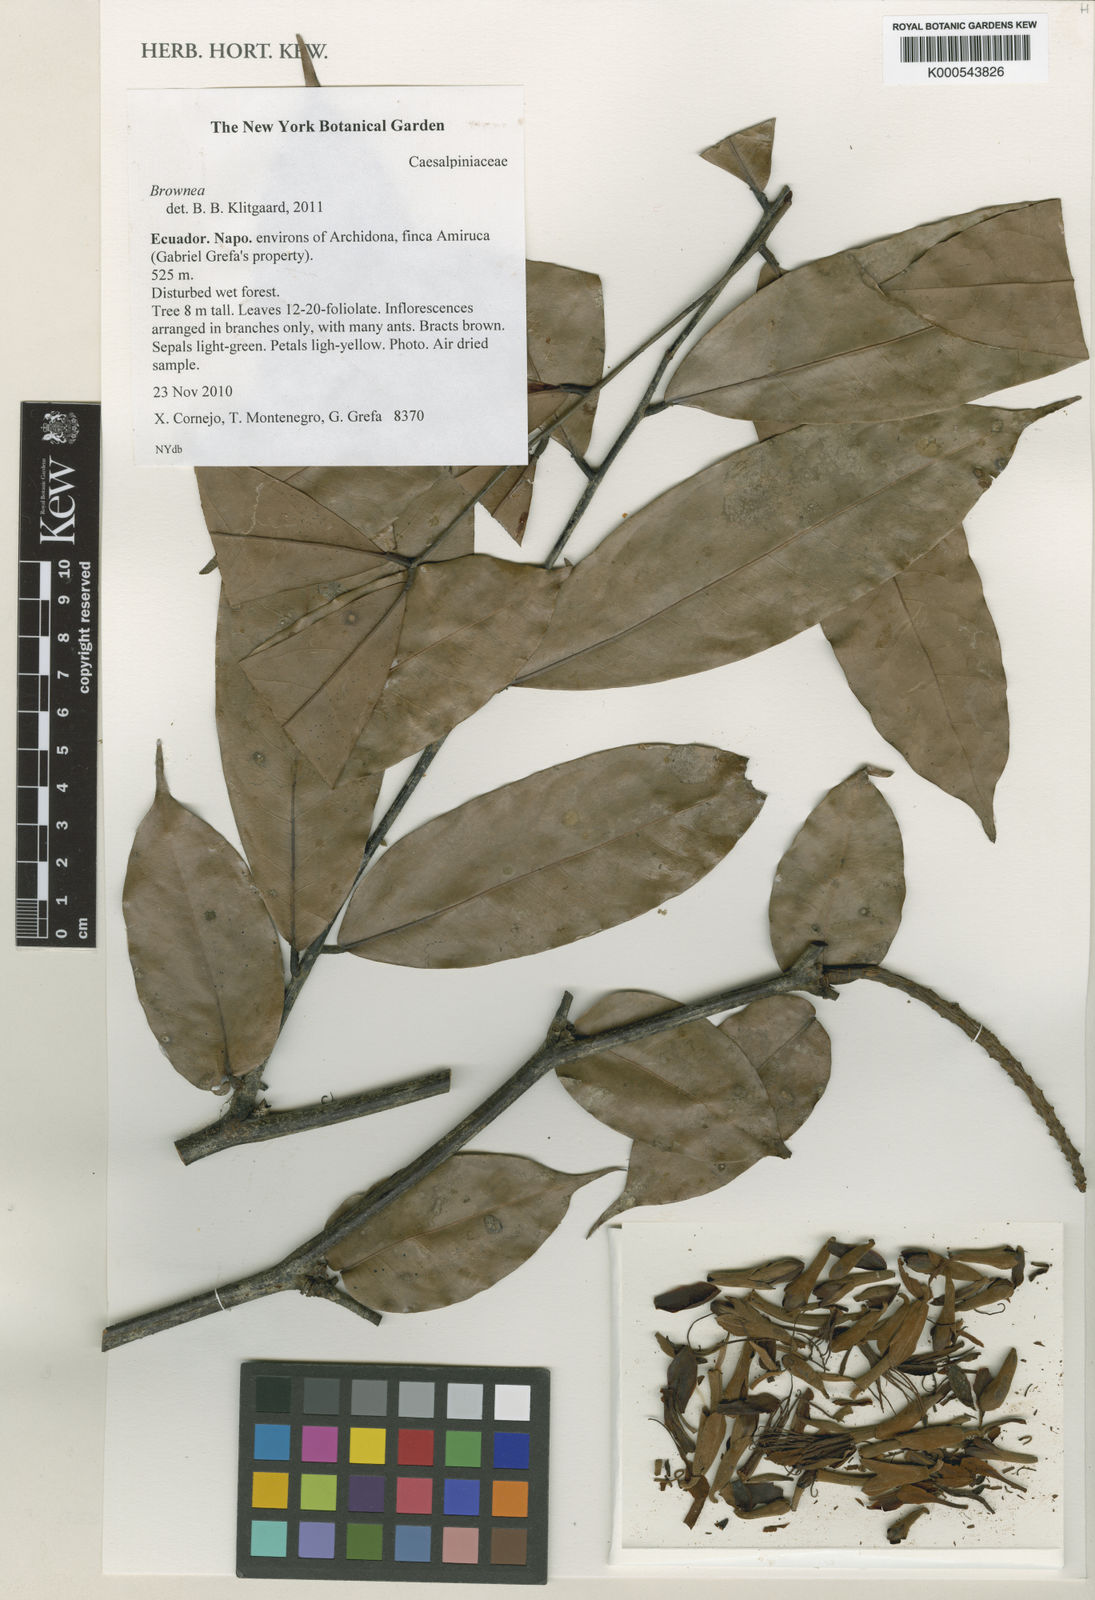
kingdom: Plantae
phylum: Tracheophyta
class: Magnoliopsida
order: Fabales
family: Fabaceae
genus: Brownea
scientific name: Brownea
